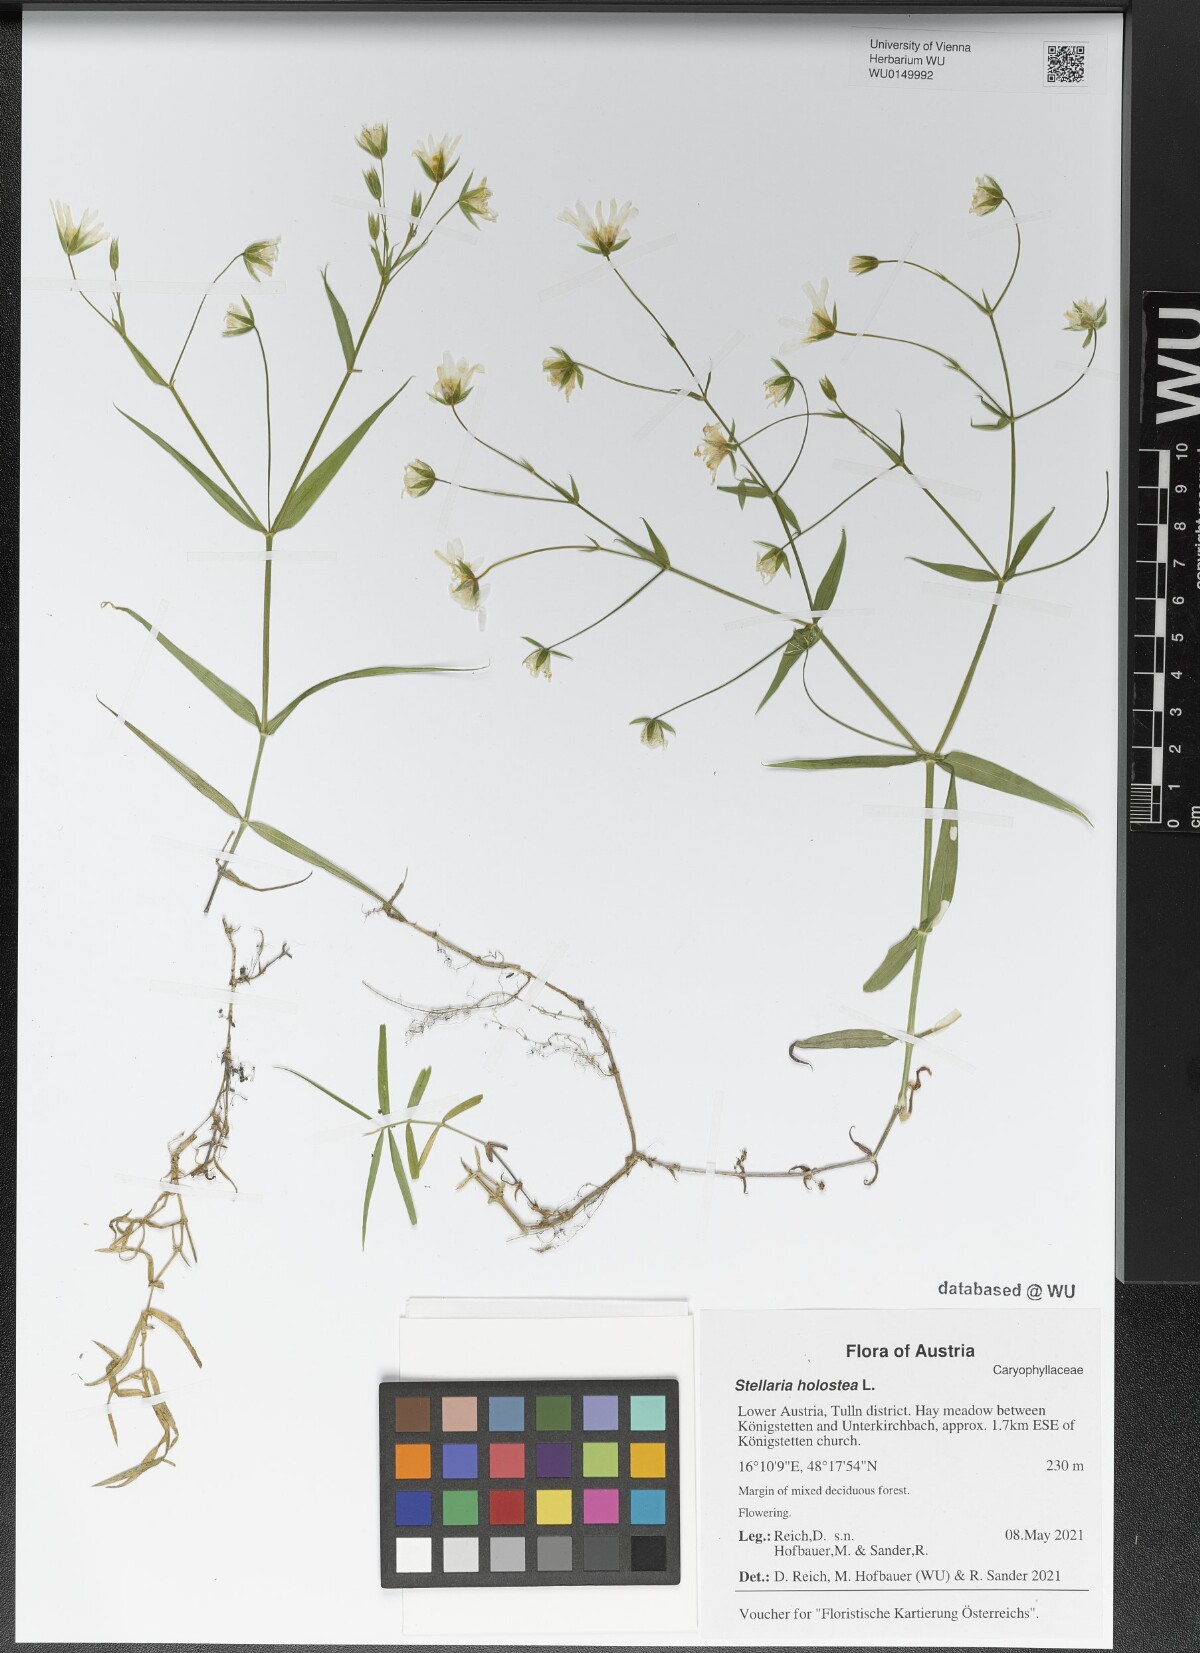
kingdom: Plantae
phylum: Tracheophyta
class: Magnoliopsida
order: Caryophyllales
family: Caryophyllaceae
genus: Rabelera
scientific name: Rabelera holostea
